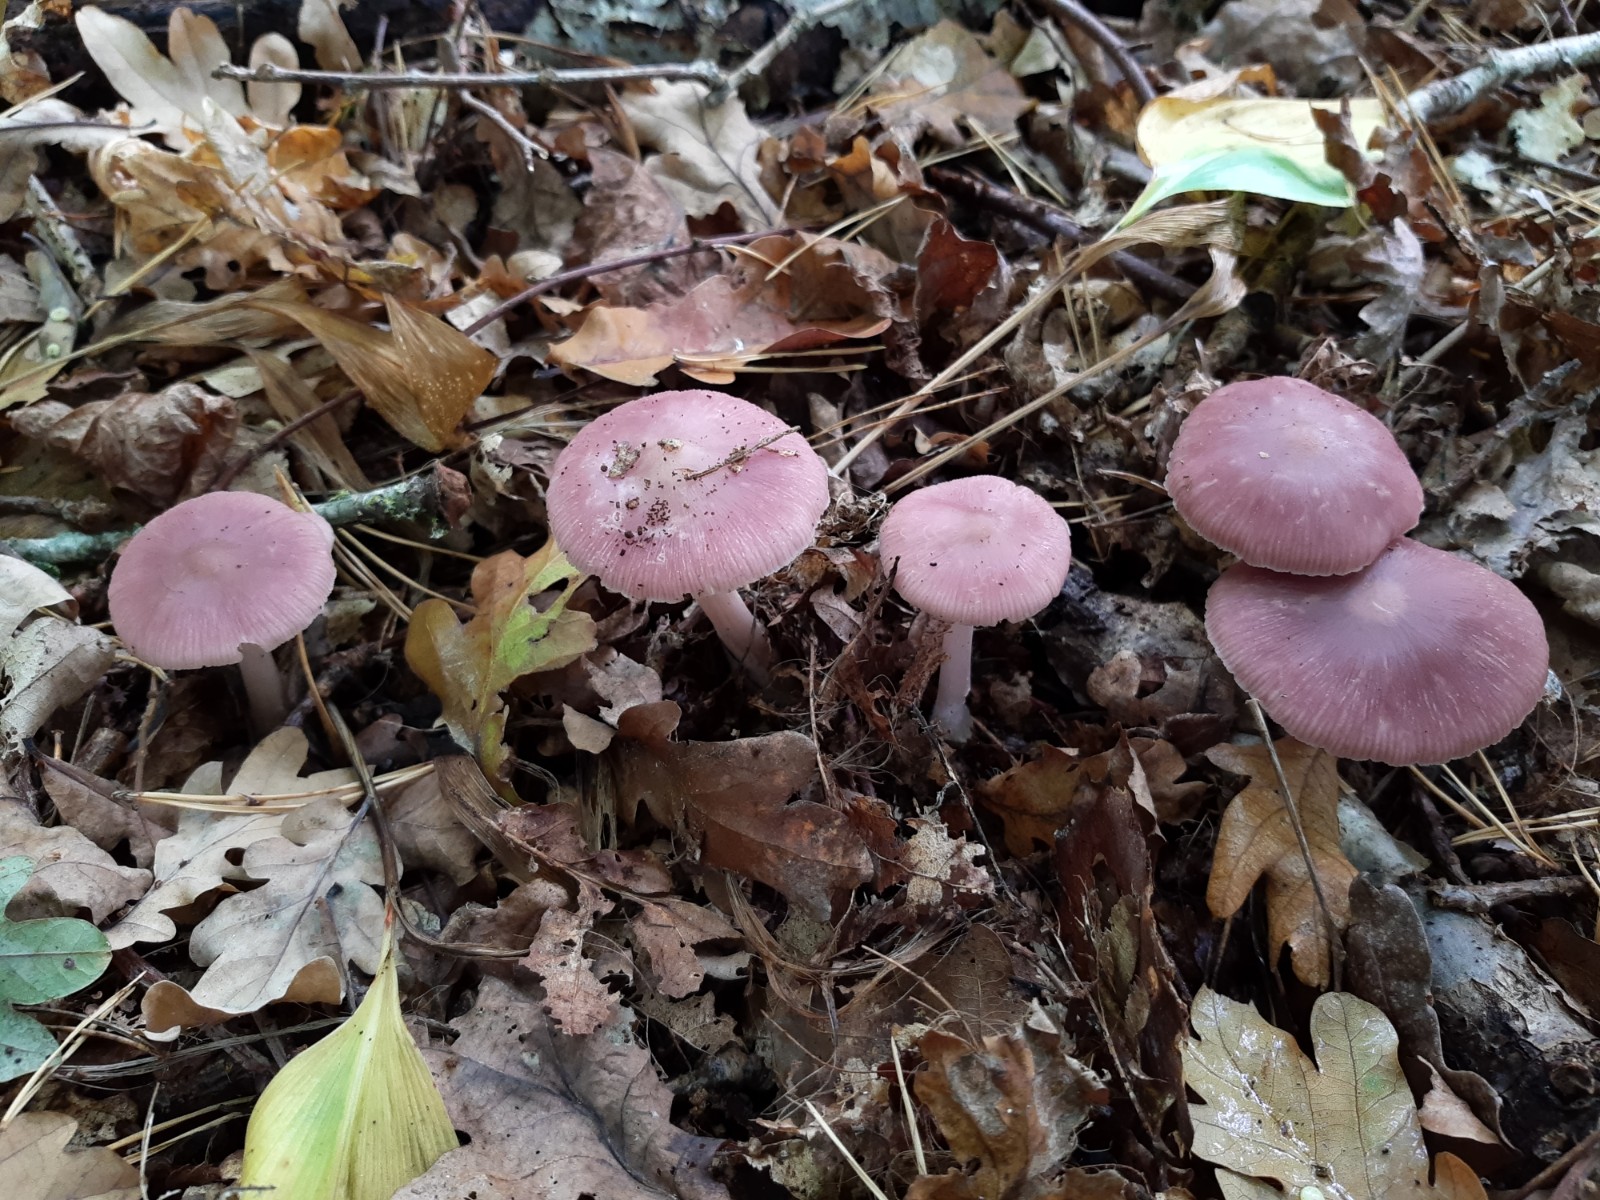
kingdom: Fungi
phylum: Basidiomycota
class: Agaricomycetes
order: Agaricales
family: Mycenaceae
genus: Mycena
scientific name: Mycena rosea
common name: rosa huesvamp
